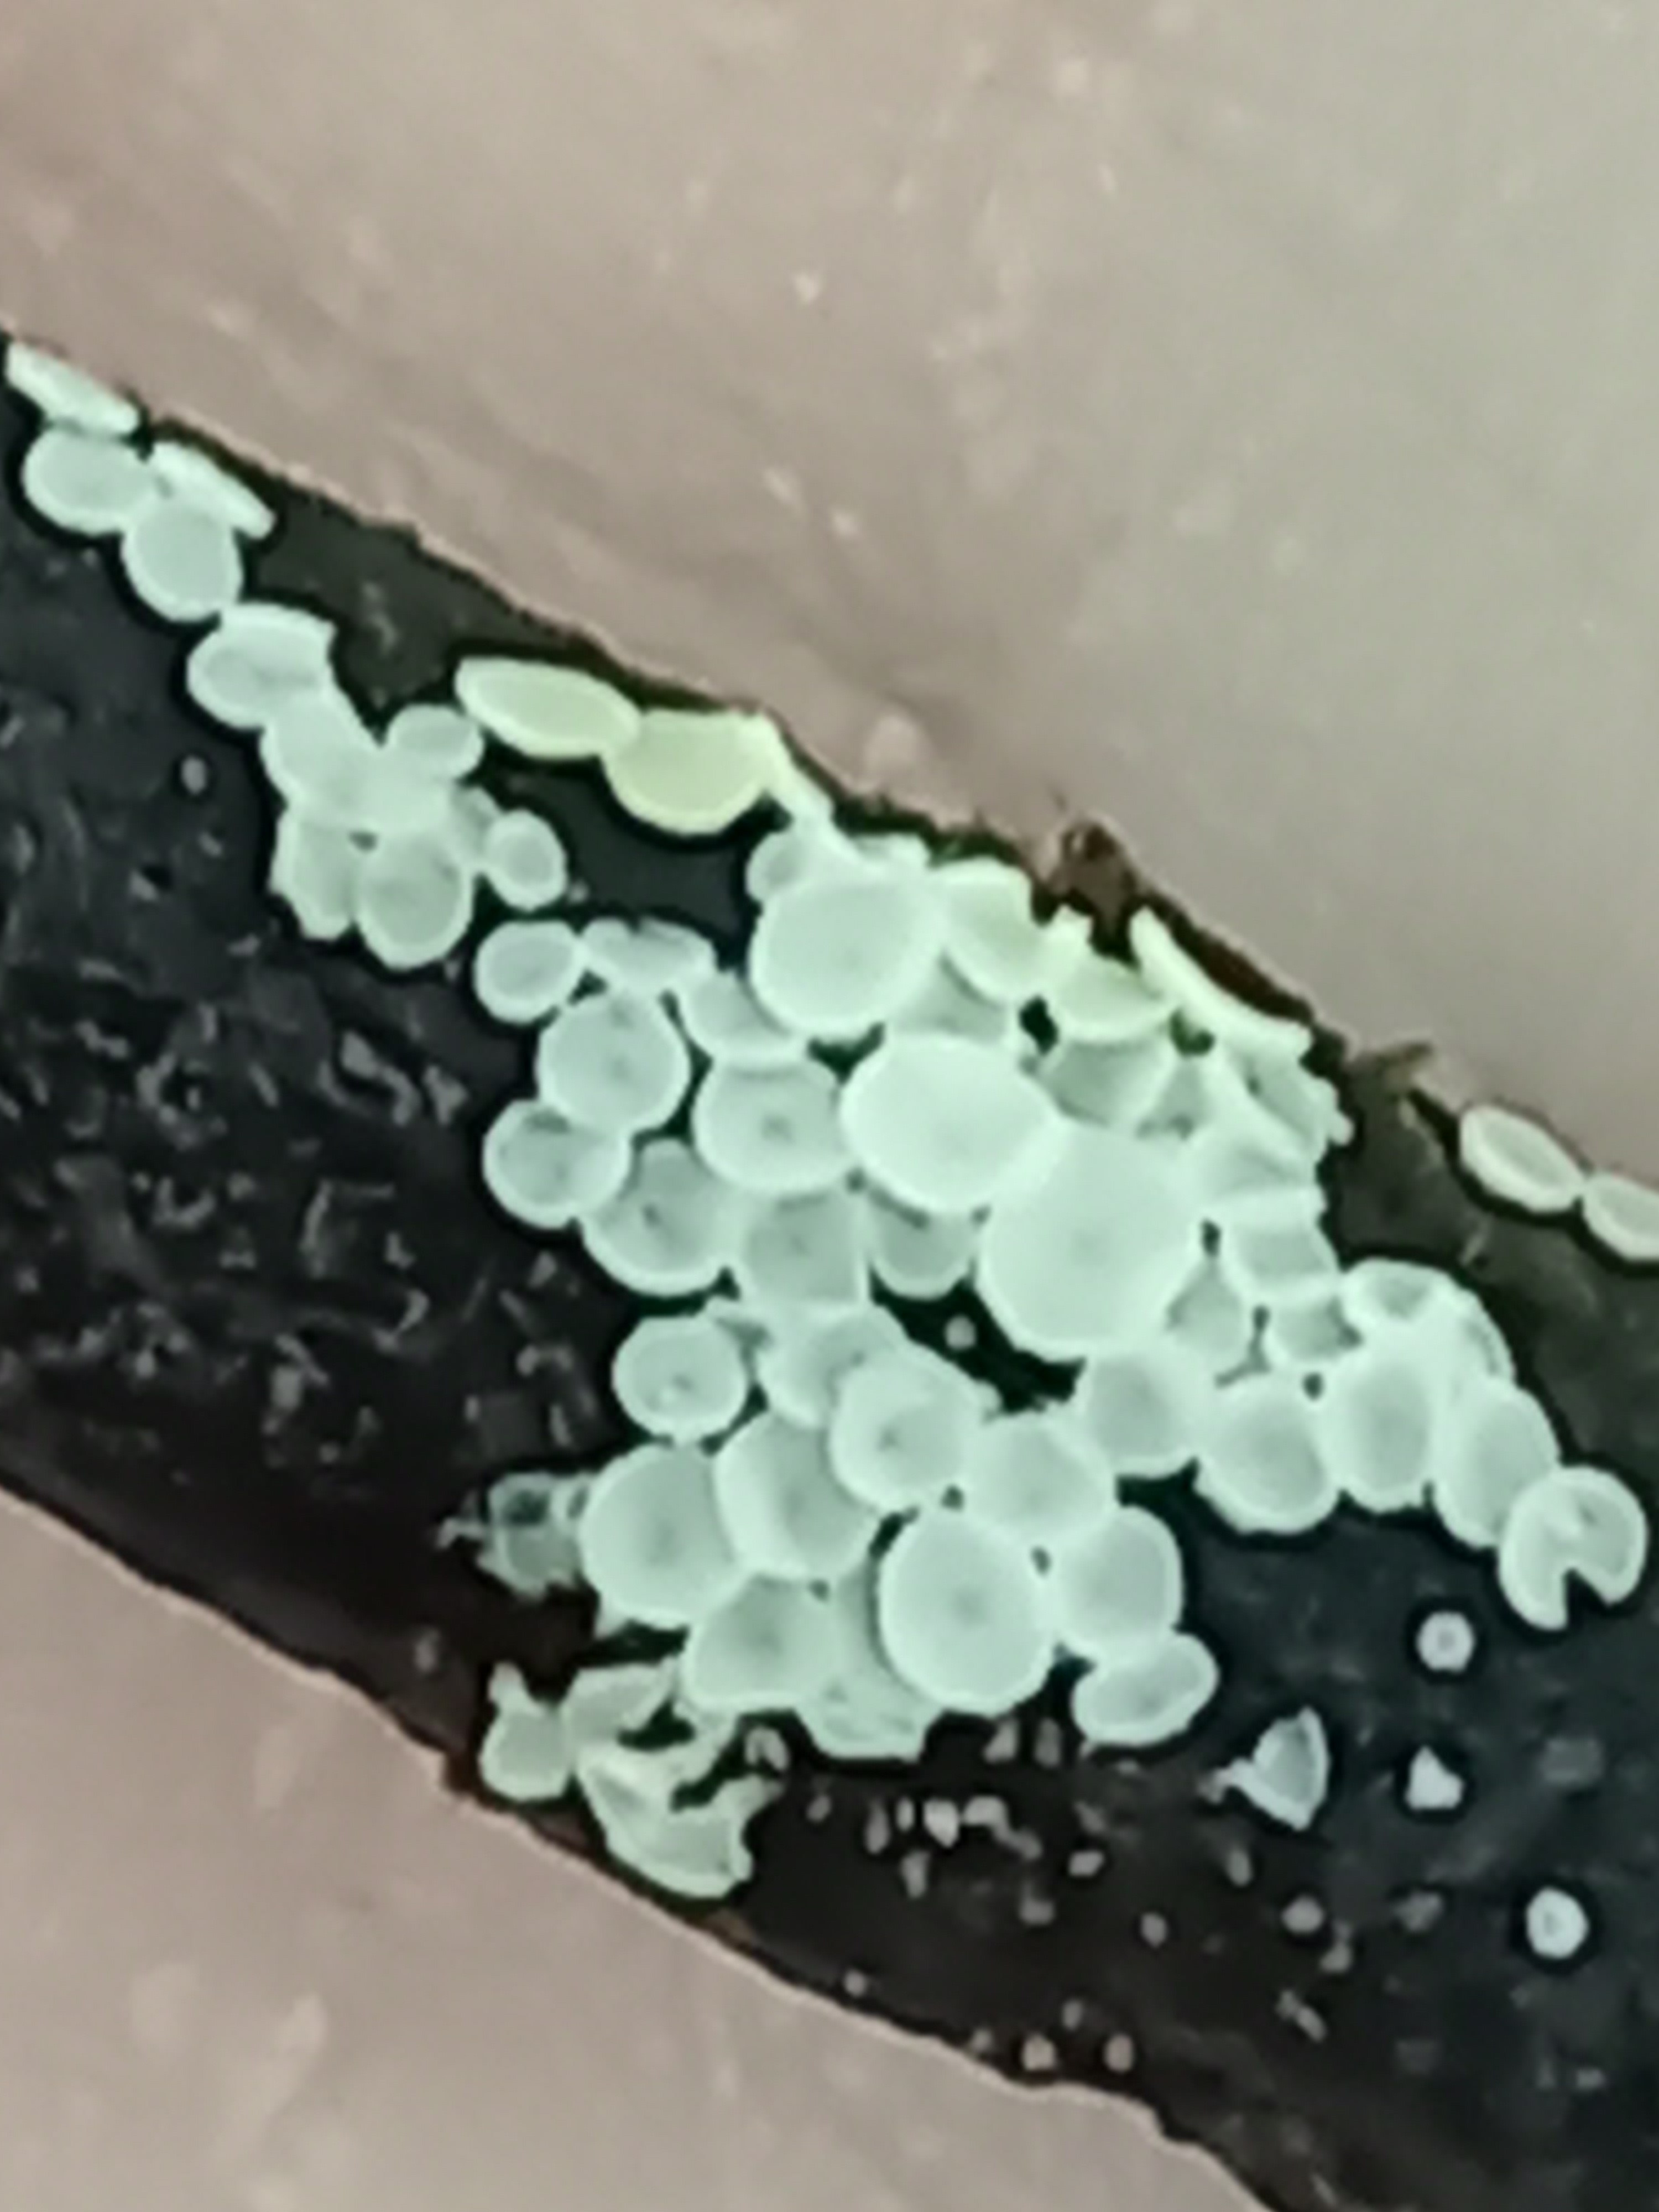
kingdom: Fungi
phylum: Ascomycota
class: Leotiomycetes
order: Helotiales
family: Lachnaceae
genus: Lachnum
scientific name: Lachnum
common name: frynseskive
